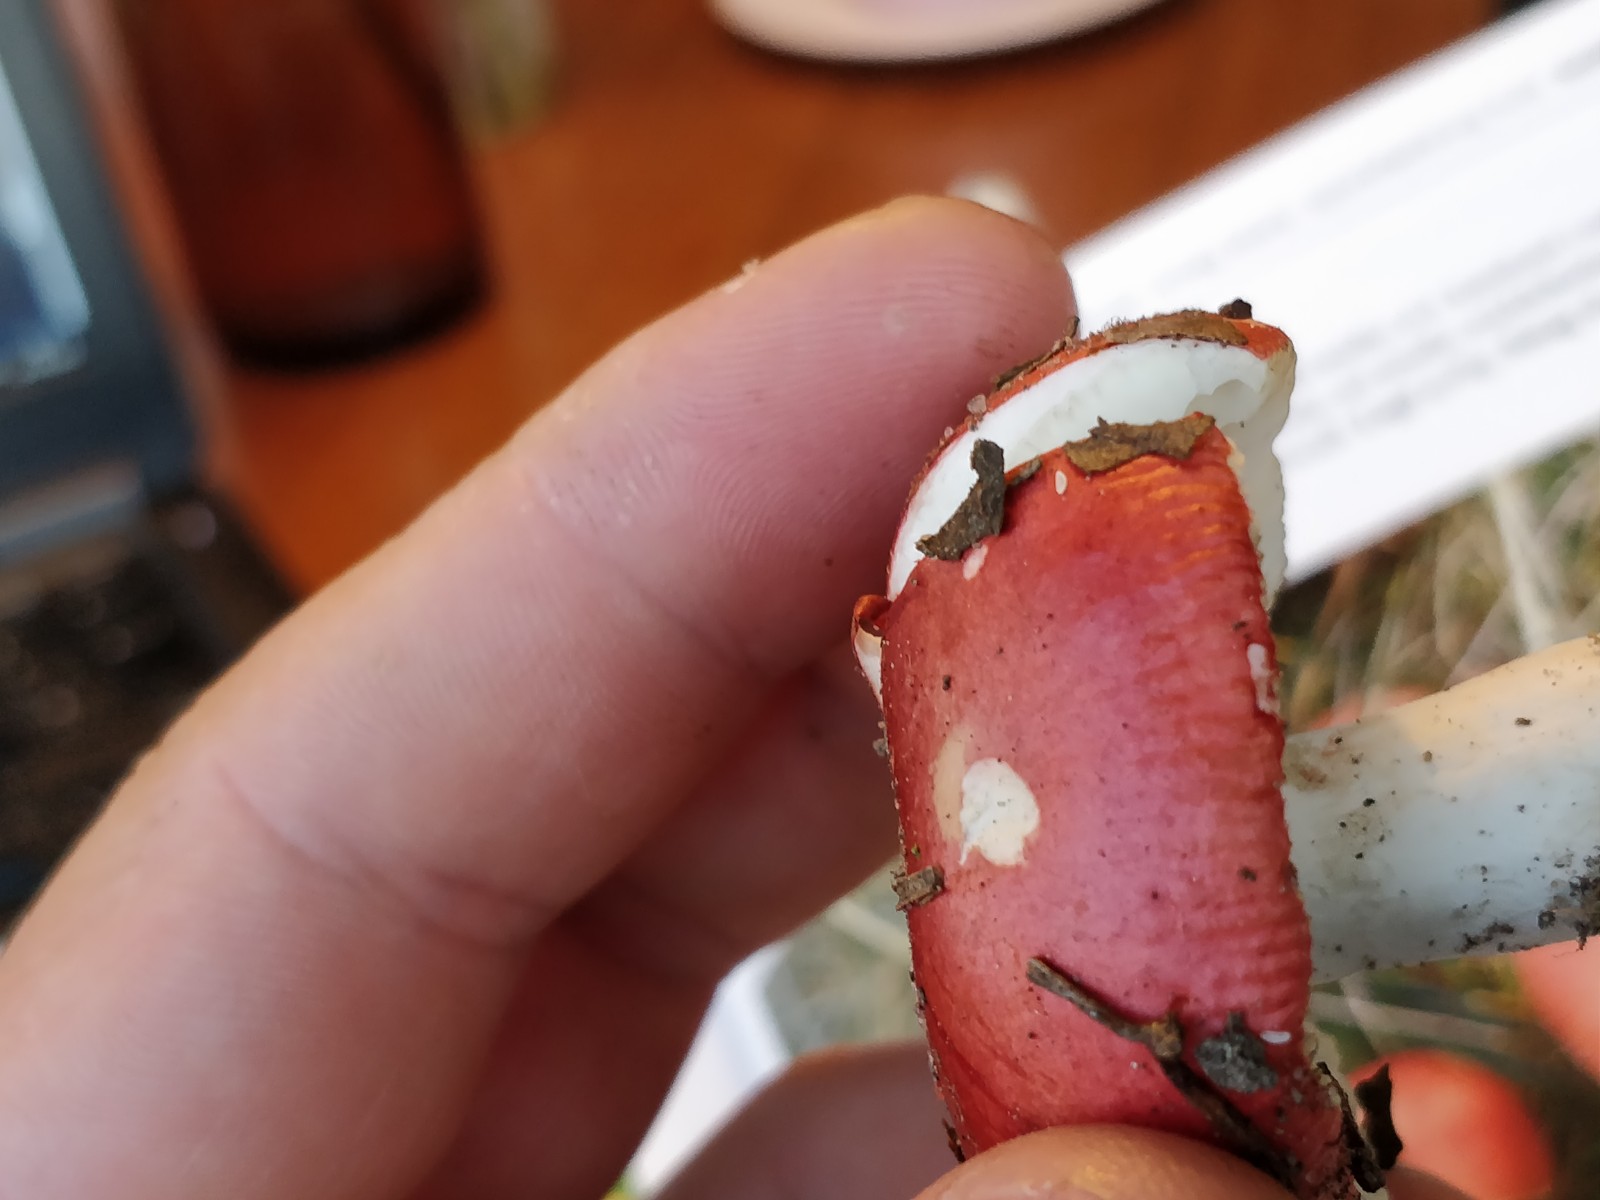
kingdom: Fungi
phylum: Basidiomycota
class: Agaricomycetes
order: Russulales
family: Russulaceae
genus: Russula
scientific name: Russula nobilis
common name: lille gift-skørhat
